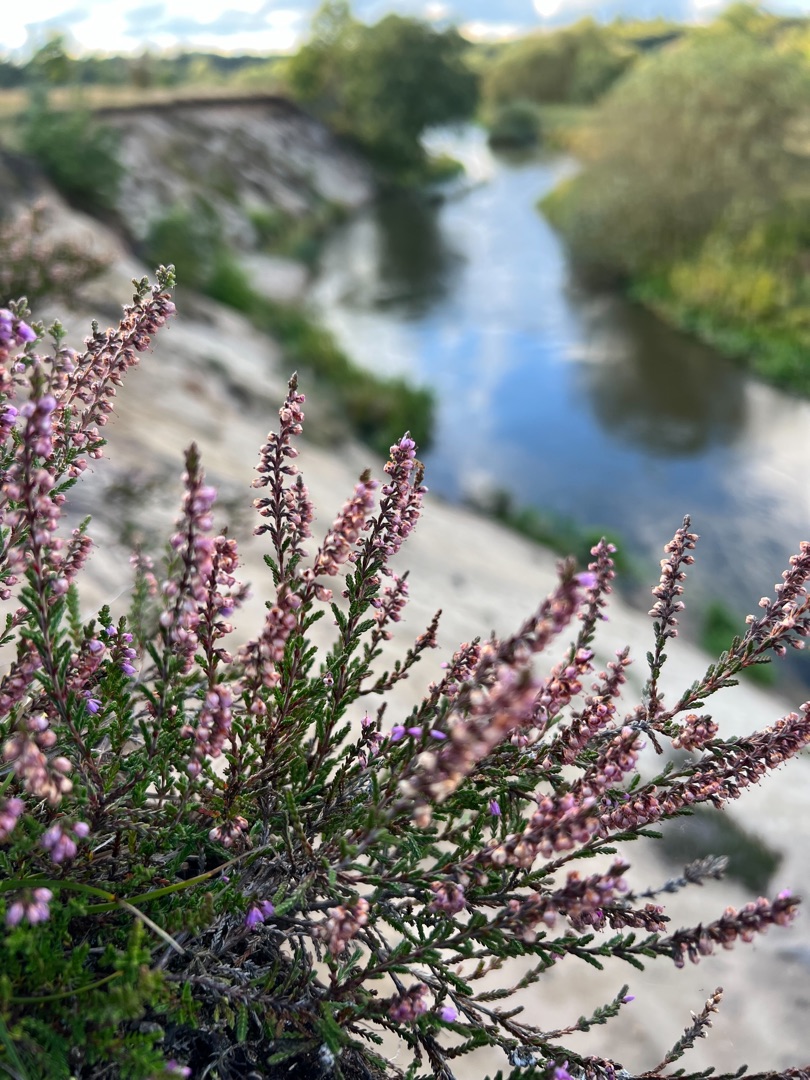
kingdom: Plantae
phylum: Tracheophyta
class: Magnoliopsida
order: Ericales
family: Ericaceae
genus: Calluna
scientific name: Calluna vulgaris
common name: Hedelyng
